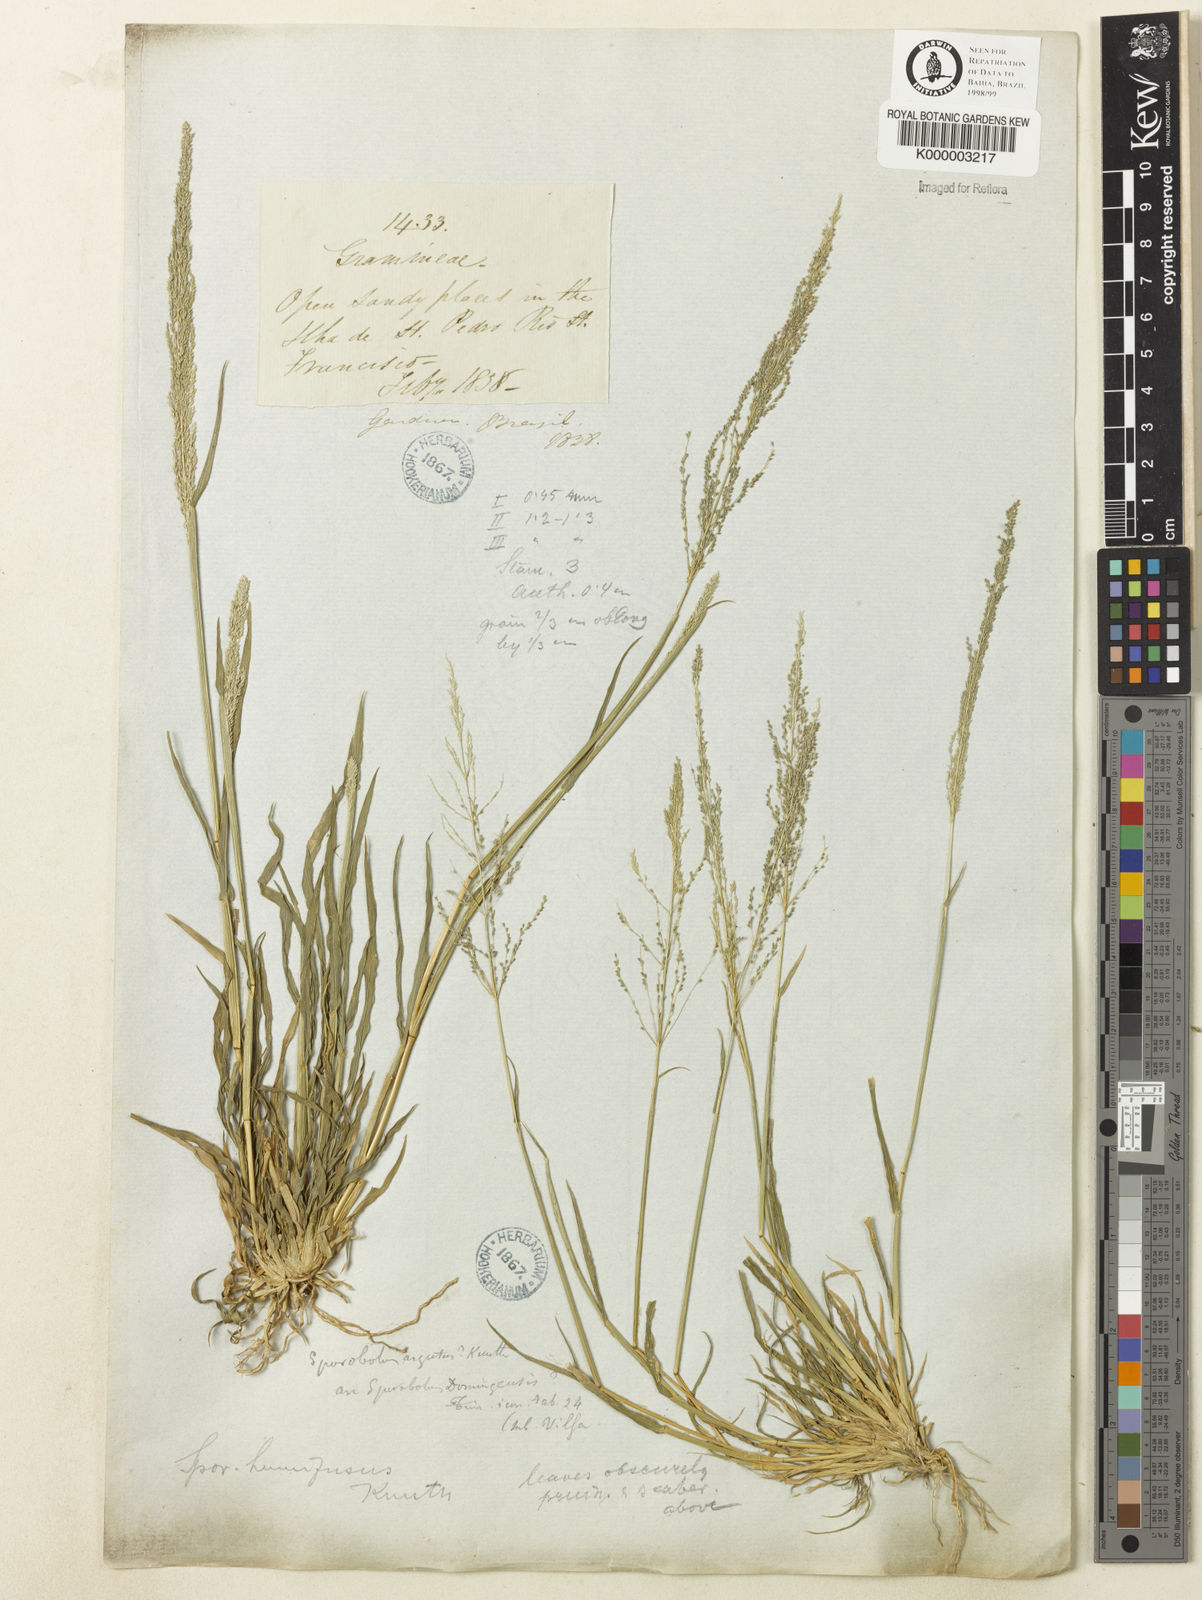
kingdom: Plantae
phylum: Tracheophyta
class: Liliopsida
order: Poales
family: Poaceae
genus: Sporobolus
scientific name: Sporobolus pyramidatus
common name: Whorled dropseed
